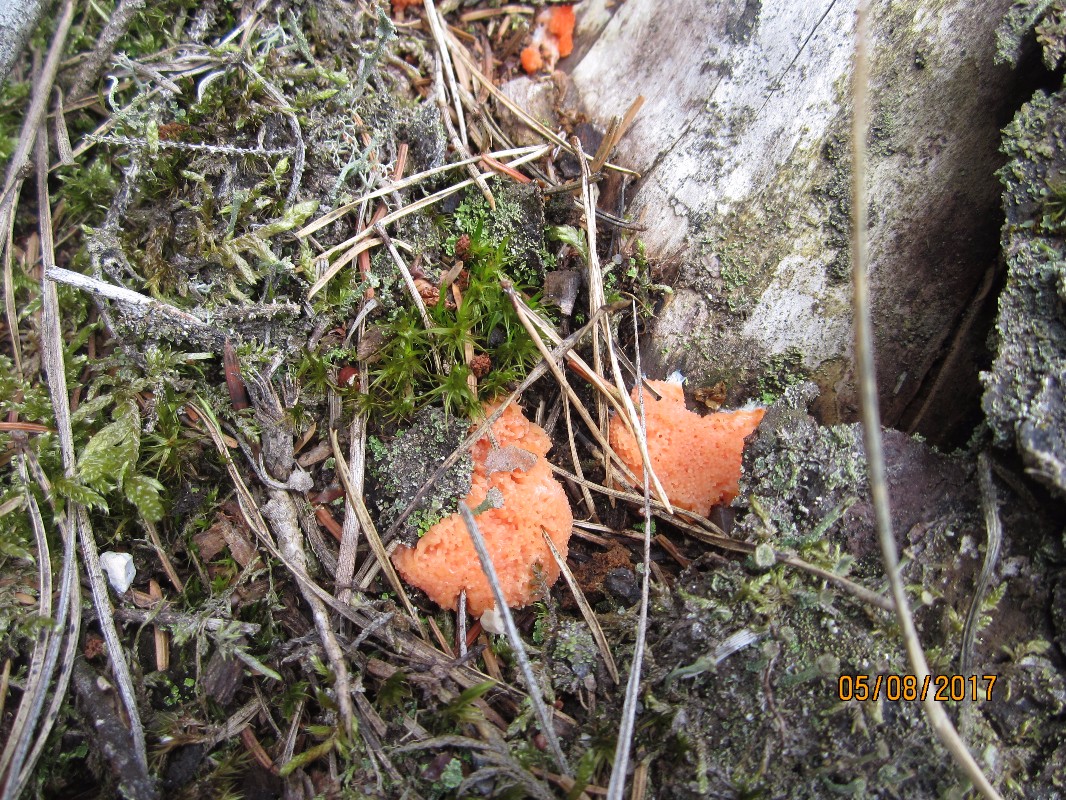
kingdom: Protozoa
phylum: Mycetozoa
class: Myxomycetes
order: Cribrariales
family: Tubiferaceae
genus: Tubifera
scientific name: Tubifera ferruginosa
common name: kanel-støvrør
